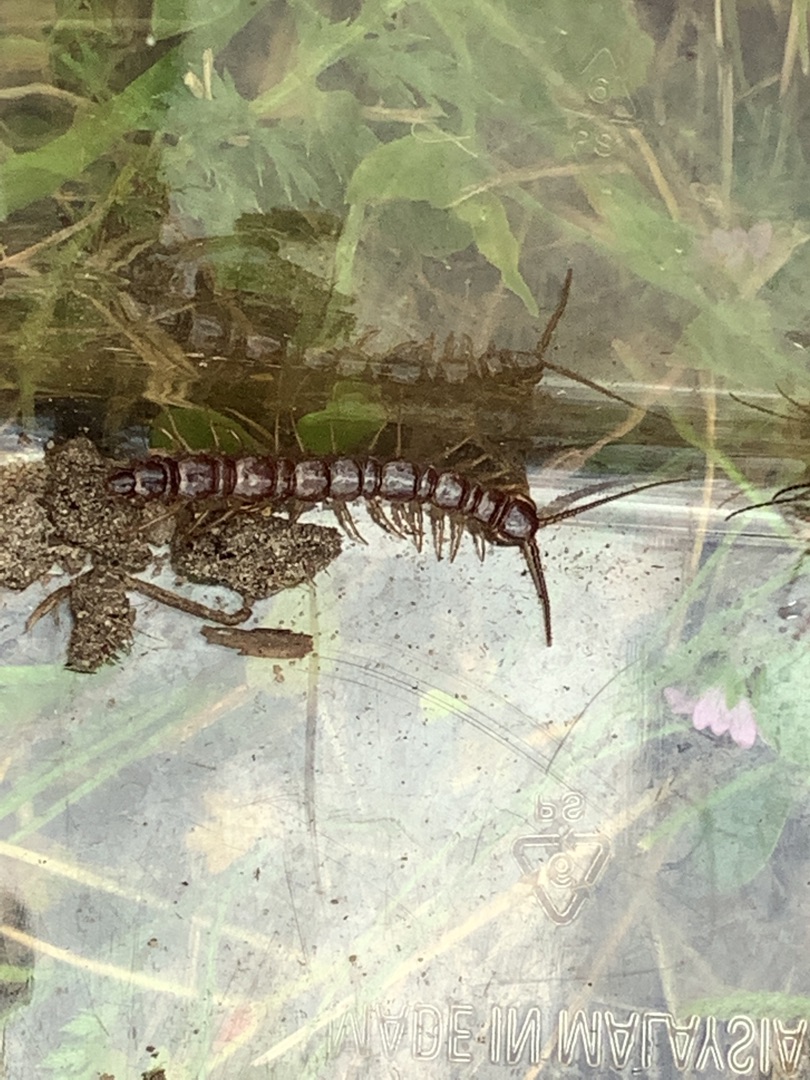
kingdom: Animalia
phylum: Arthropoda
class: Chilopoda
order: Lithobiomorpha
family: Lithobiidae
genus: Lithobius
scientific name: Lithobius
